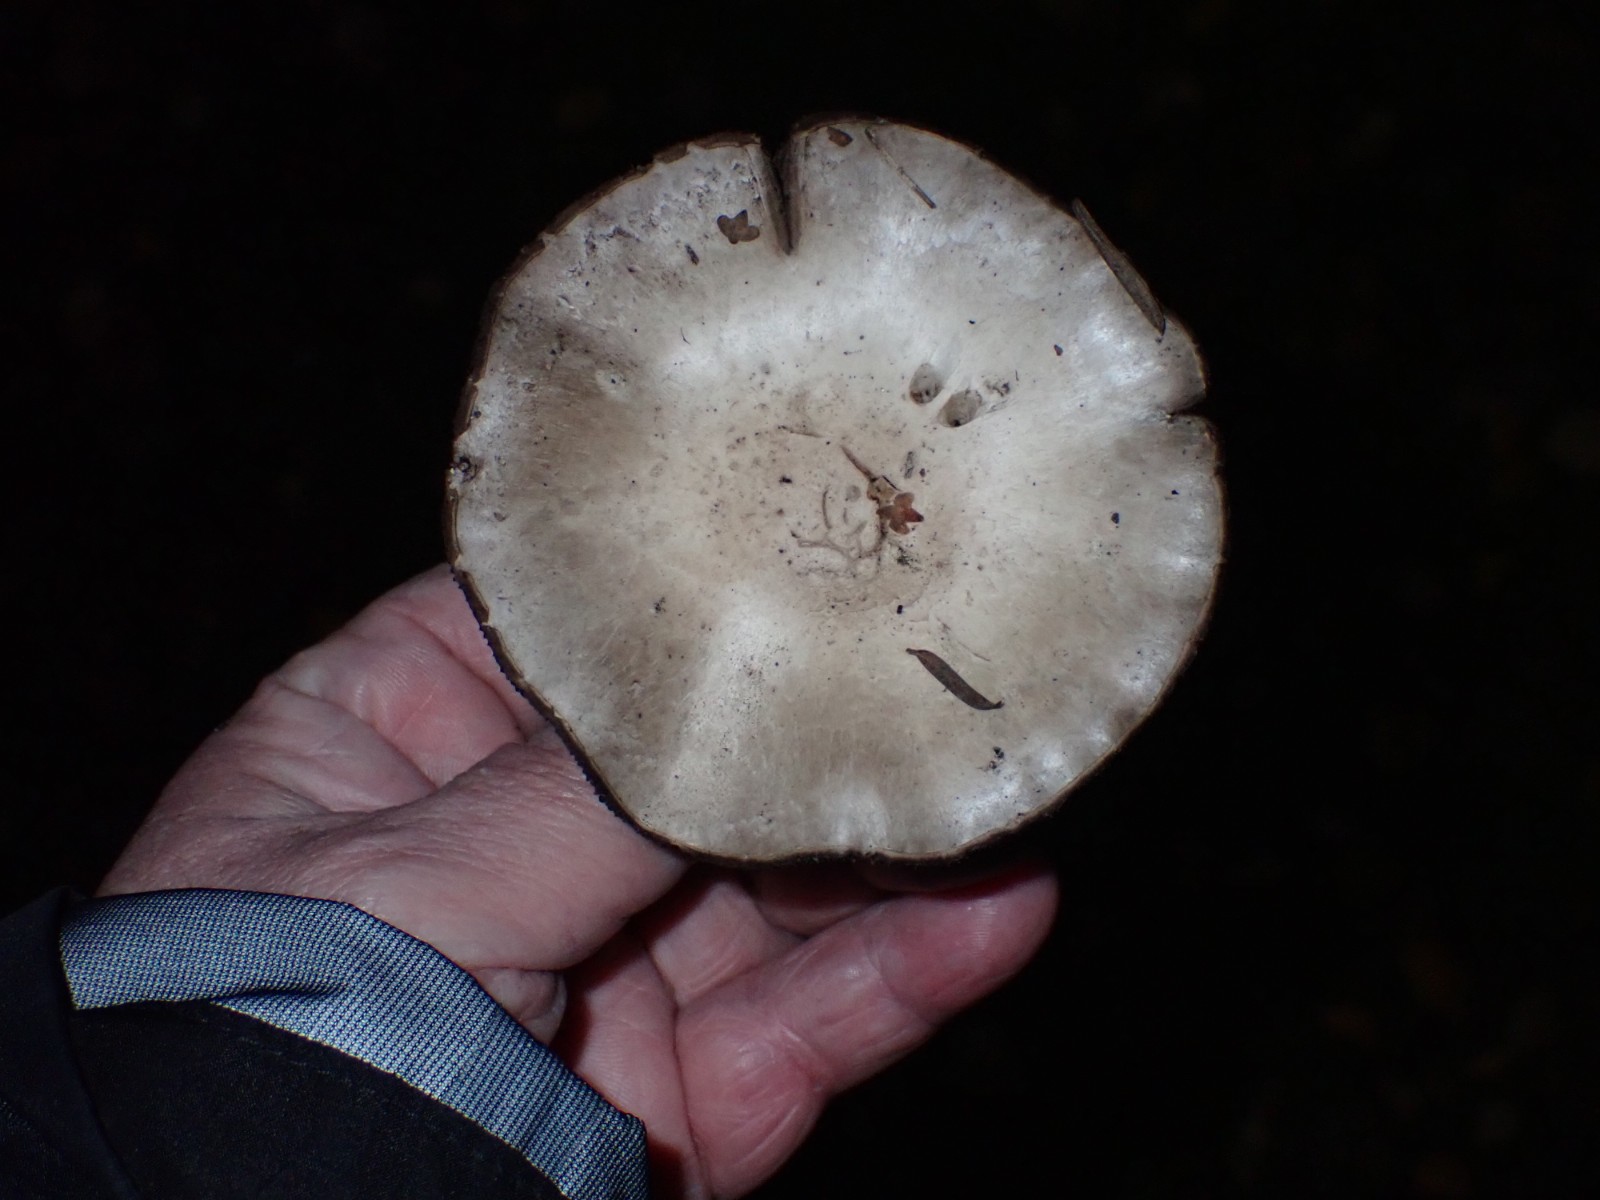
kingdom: Fungi
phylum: Basidiomycota
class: Agaricomycetes
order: Agaricales
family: Agaricaceae
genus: Agaricus
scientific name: Agaricus
